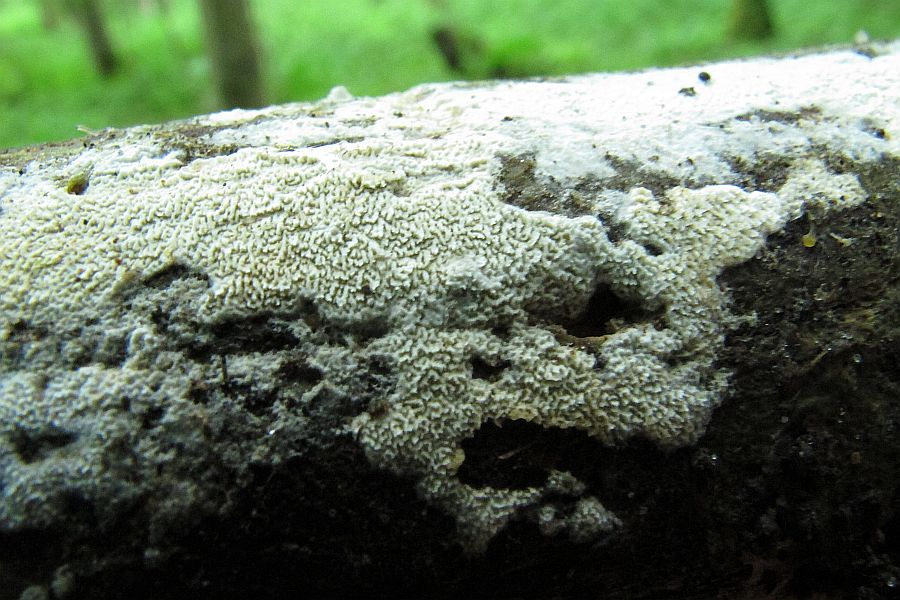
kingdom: Fungi
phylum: Basidiomycota
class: Agaricomycetes
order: Hymenochaetales
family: Schizoporaceae
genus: Xylodon
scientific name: Xylodon subtropicus
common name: labyrint-tandsvamp
